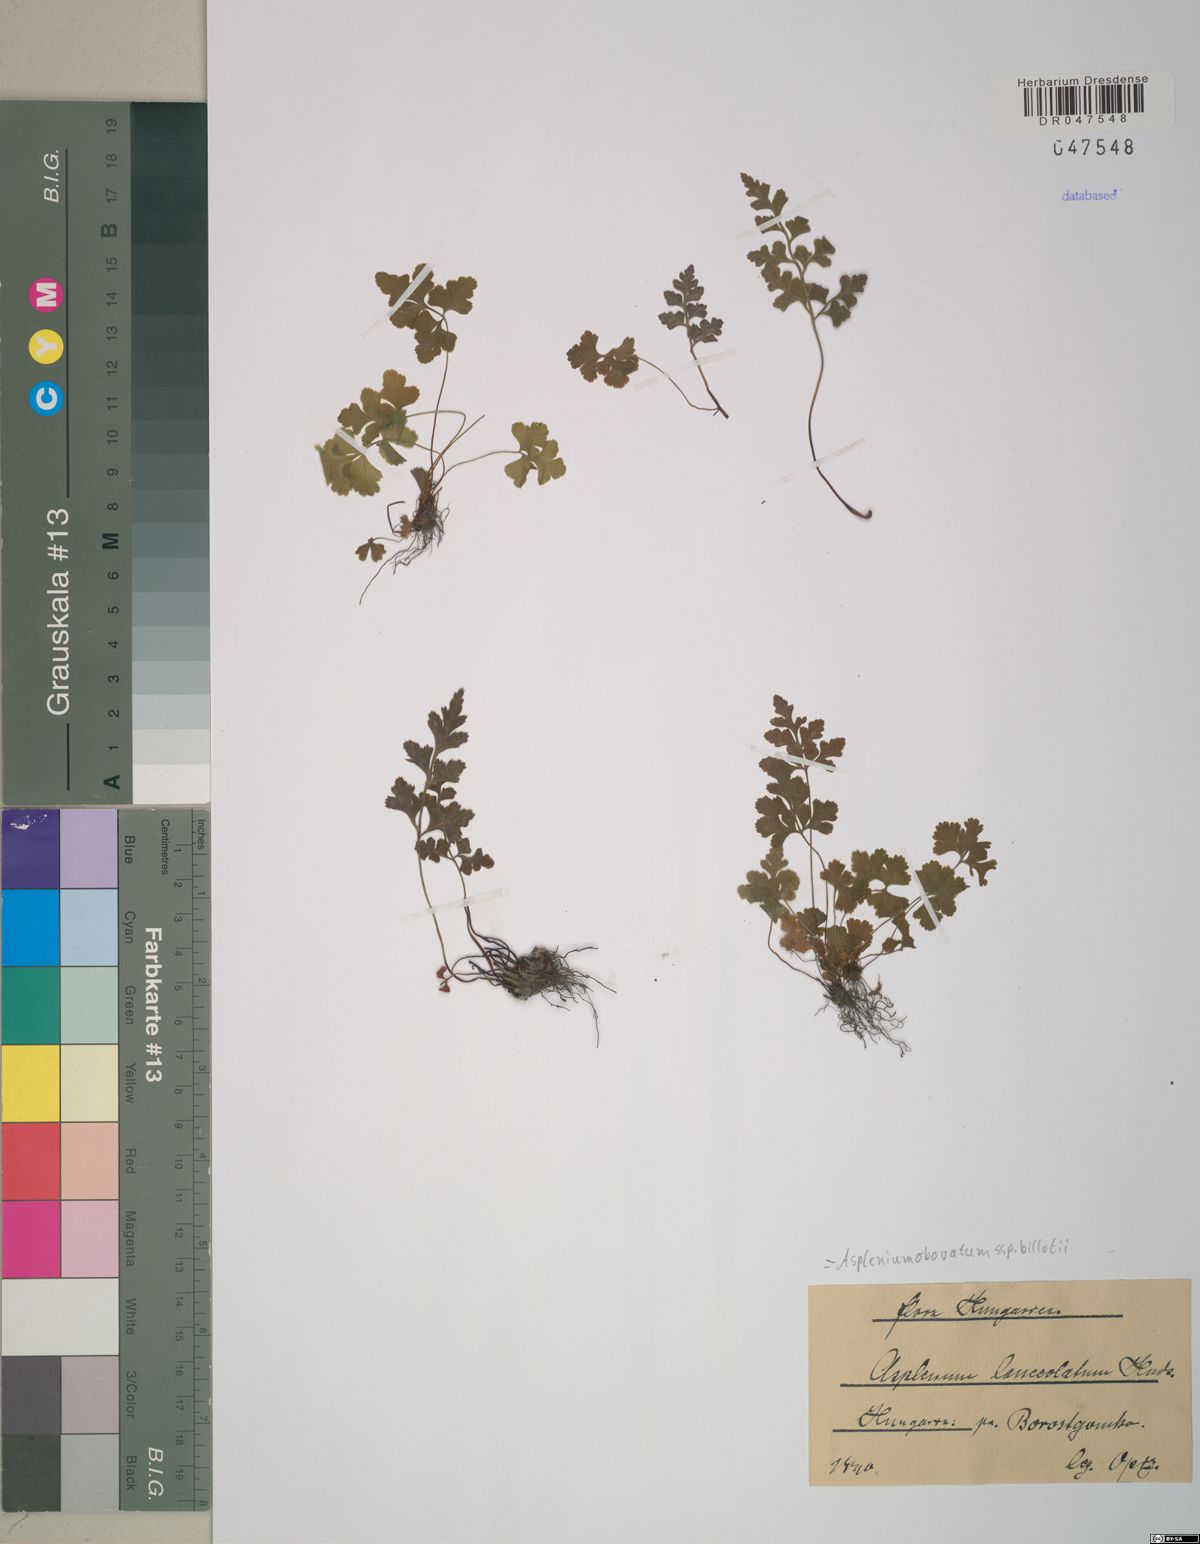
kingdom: Plantae
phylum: Tracheophyta
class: Polypodiopsida
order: Polypodiales
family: Aspleniaceae
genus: Asplenium
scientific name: Asplenium obovatum
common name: Lanceolate spleenwort
